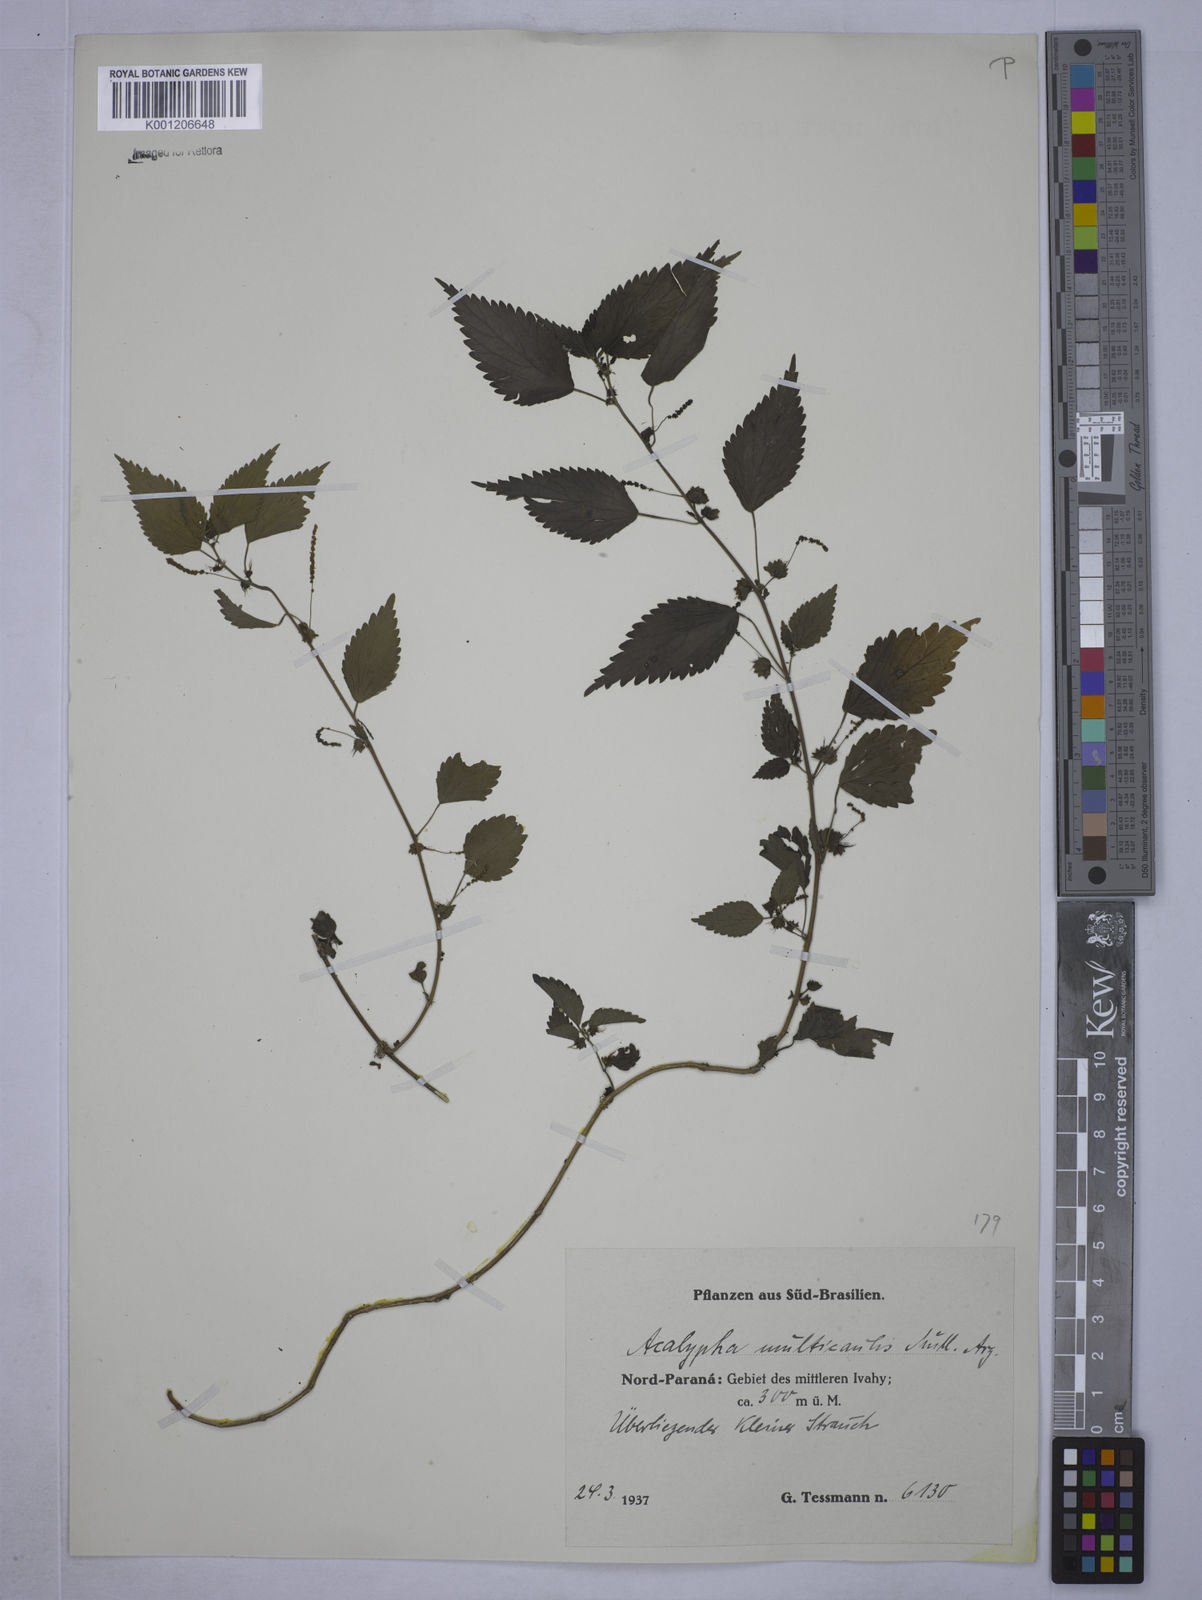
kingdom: Plantae
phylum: Tracheophyta
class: Magnoliopsida
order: Malpighiales
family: Euphorbiaceae
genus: Acalypha
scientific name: Acalypha
